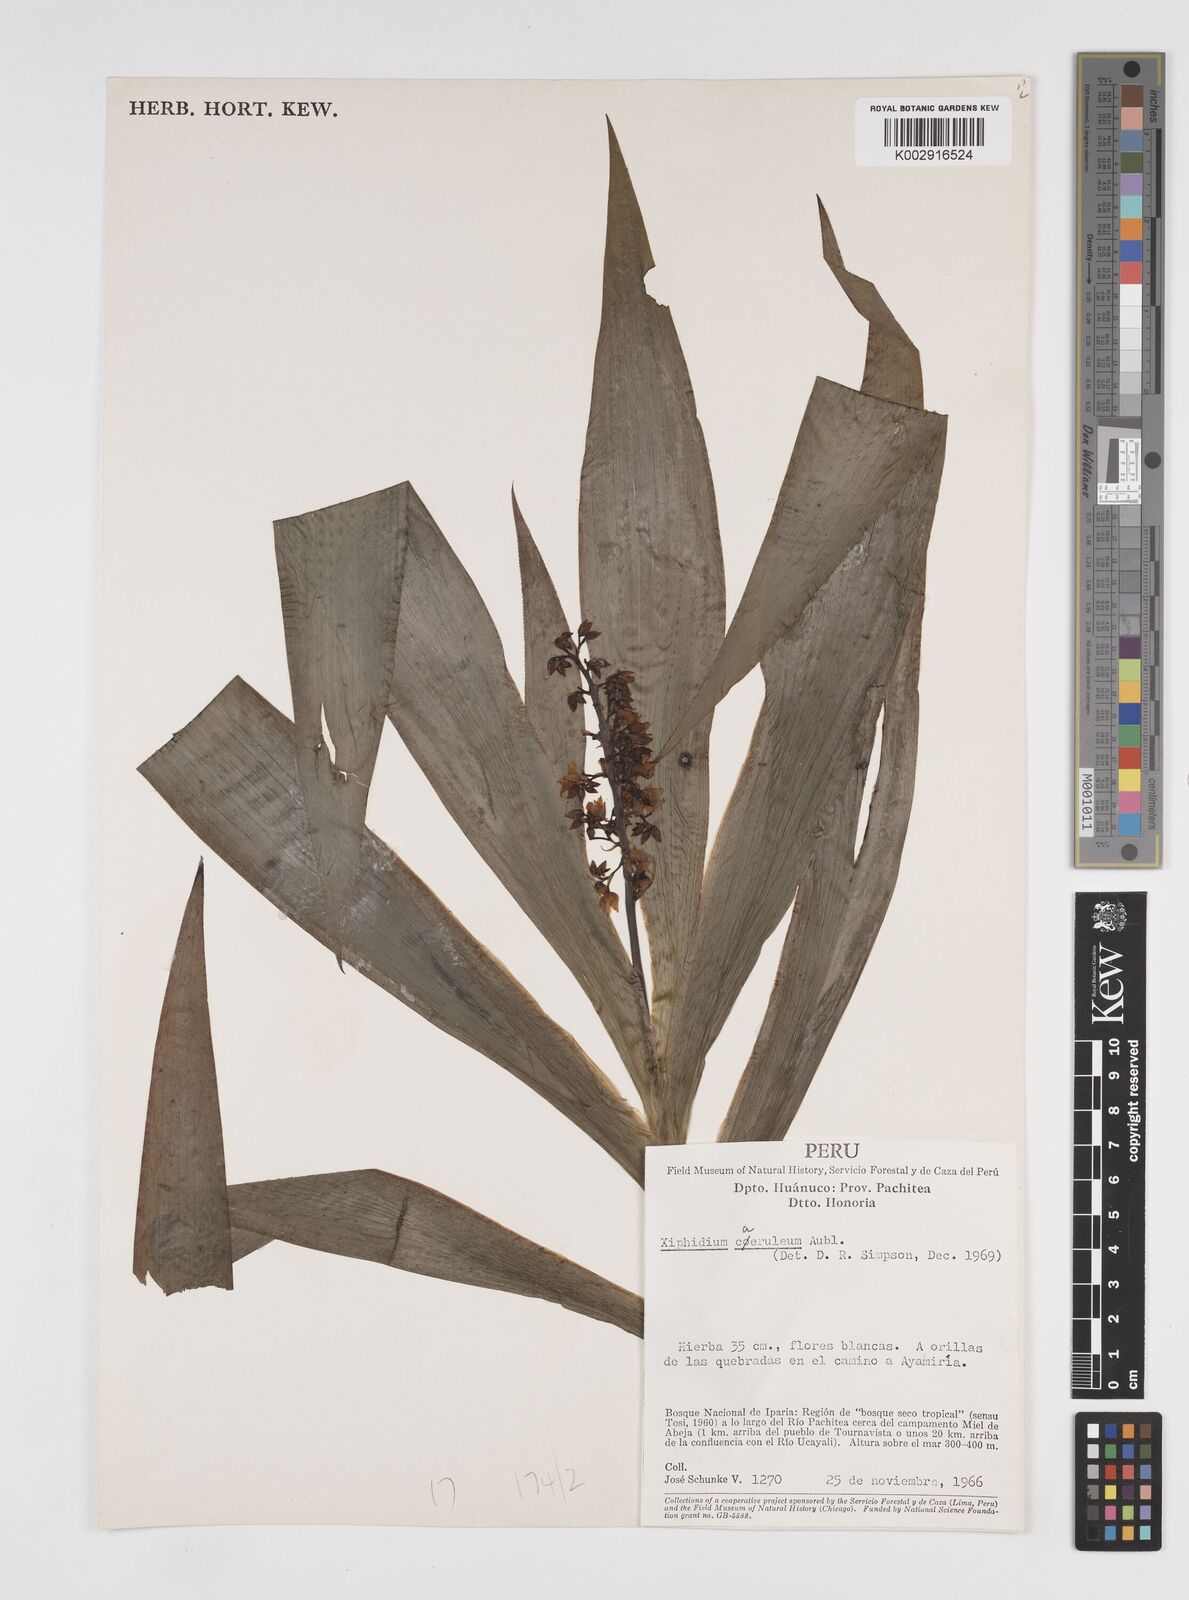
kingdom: Plantae
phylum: Tracheophyta
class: Liliopsida
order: Commelinales
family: Haemodoraceae
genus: Xiphidium
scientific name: Xiphidium caeruleum
